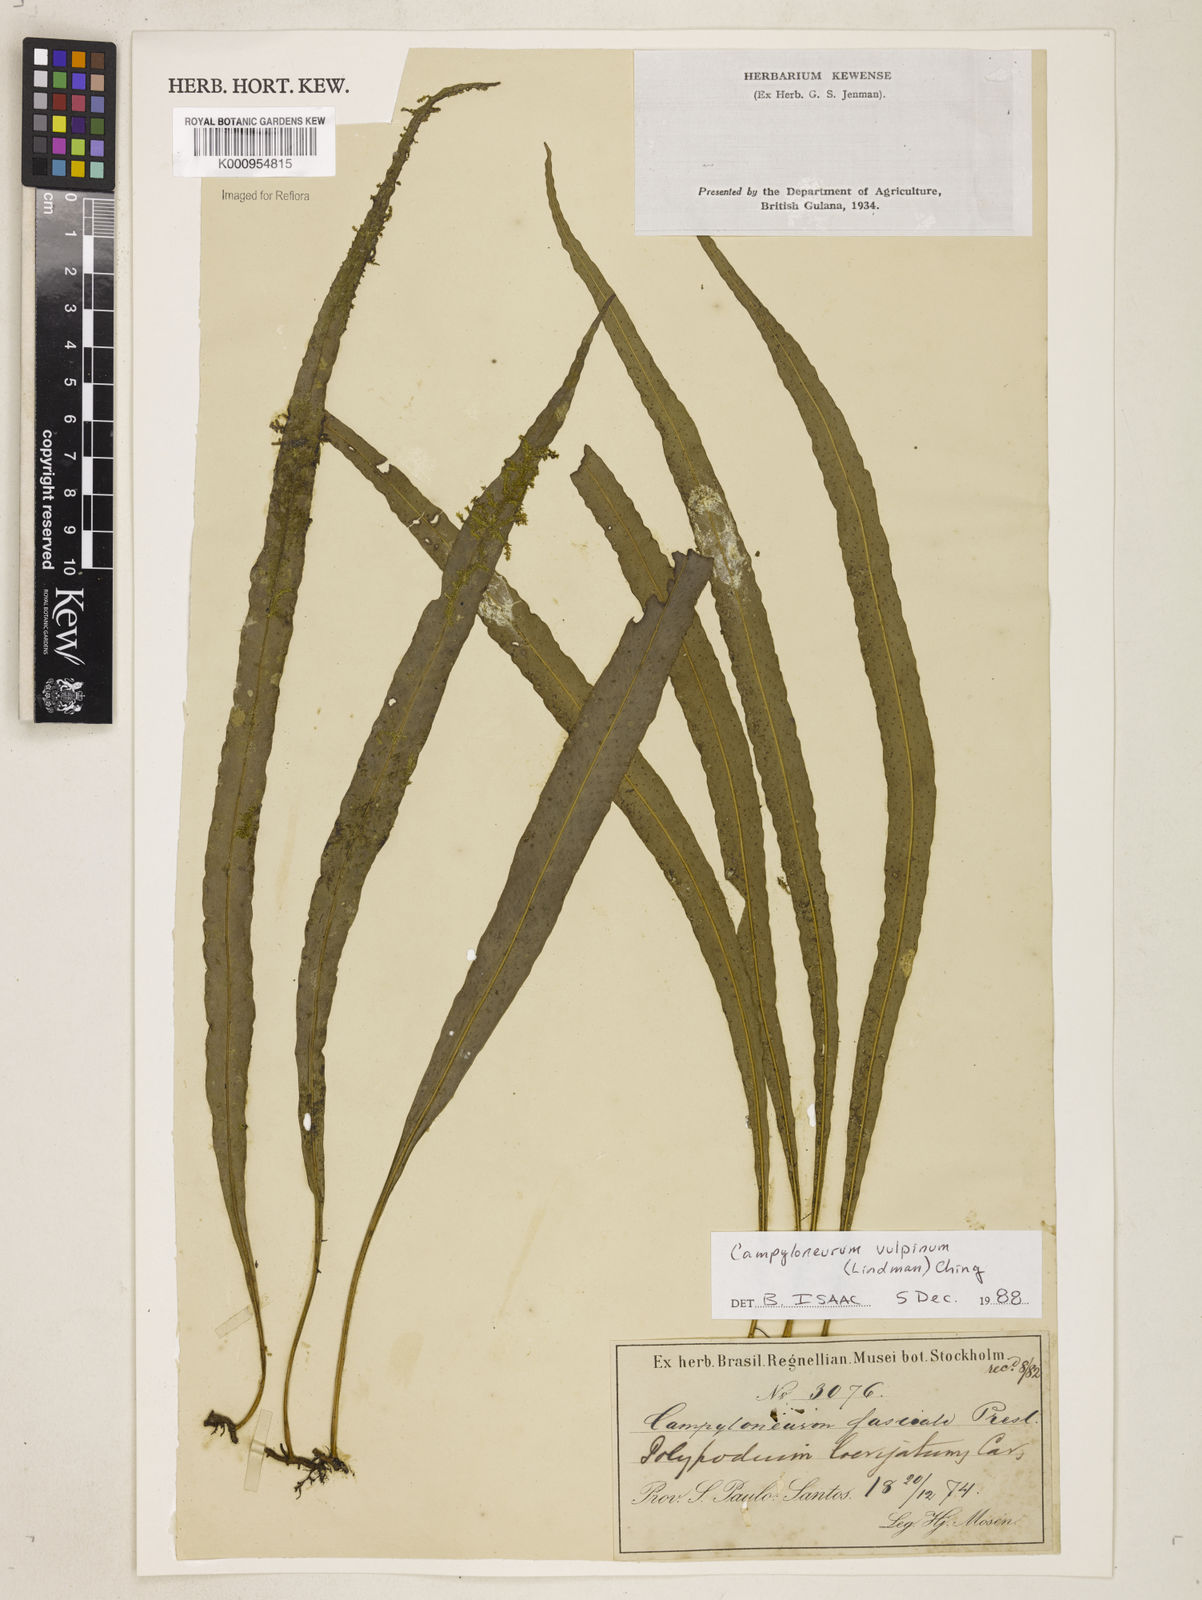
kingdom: Plantae
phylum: Tracheophyta
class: Polypodiopsida
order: Polypodiales
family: Polypodiaceae
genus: Campyloneurum
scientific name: Campyloneurum vulpinum
